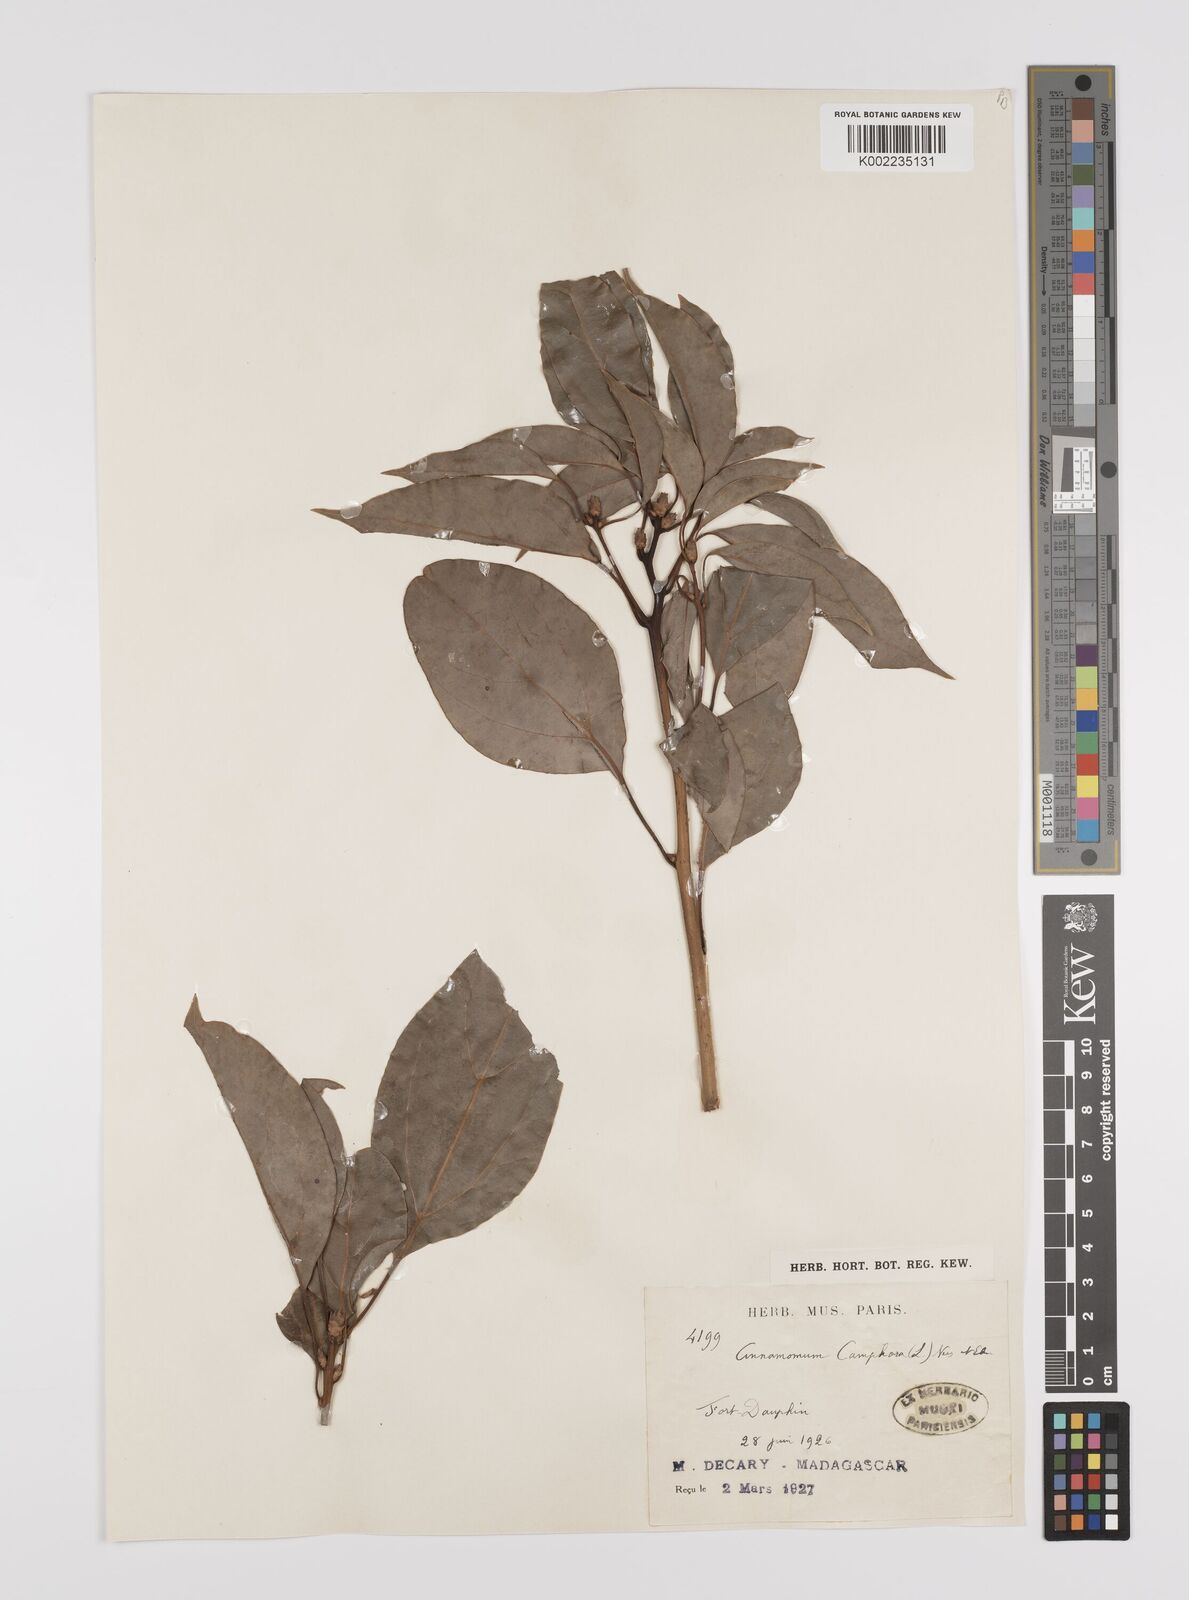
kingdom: Plantae
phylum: Tracheophyta
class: Magnoliopsida
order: Laurales
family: Lauraceae
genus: Cinnamomum
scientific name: Cinnamomum camphora
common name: Camphortree
